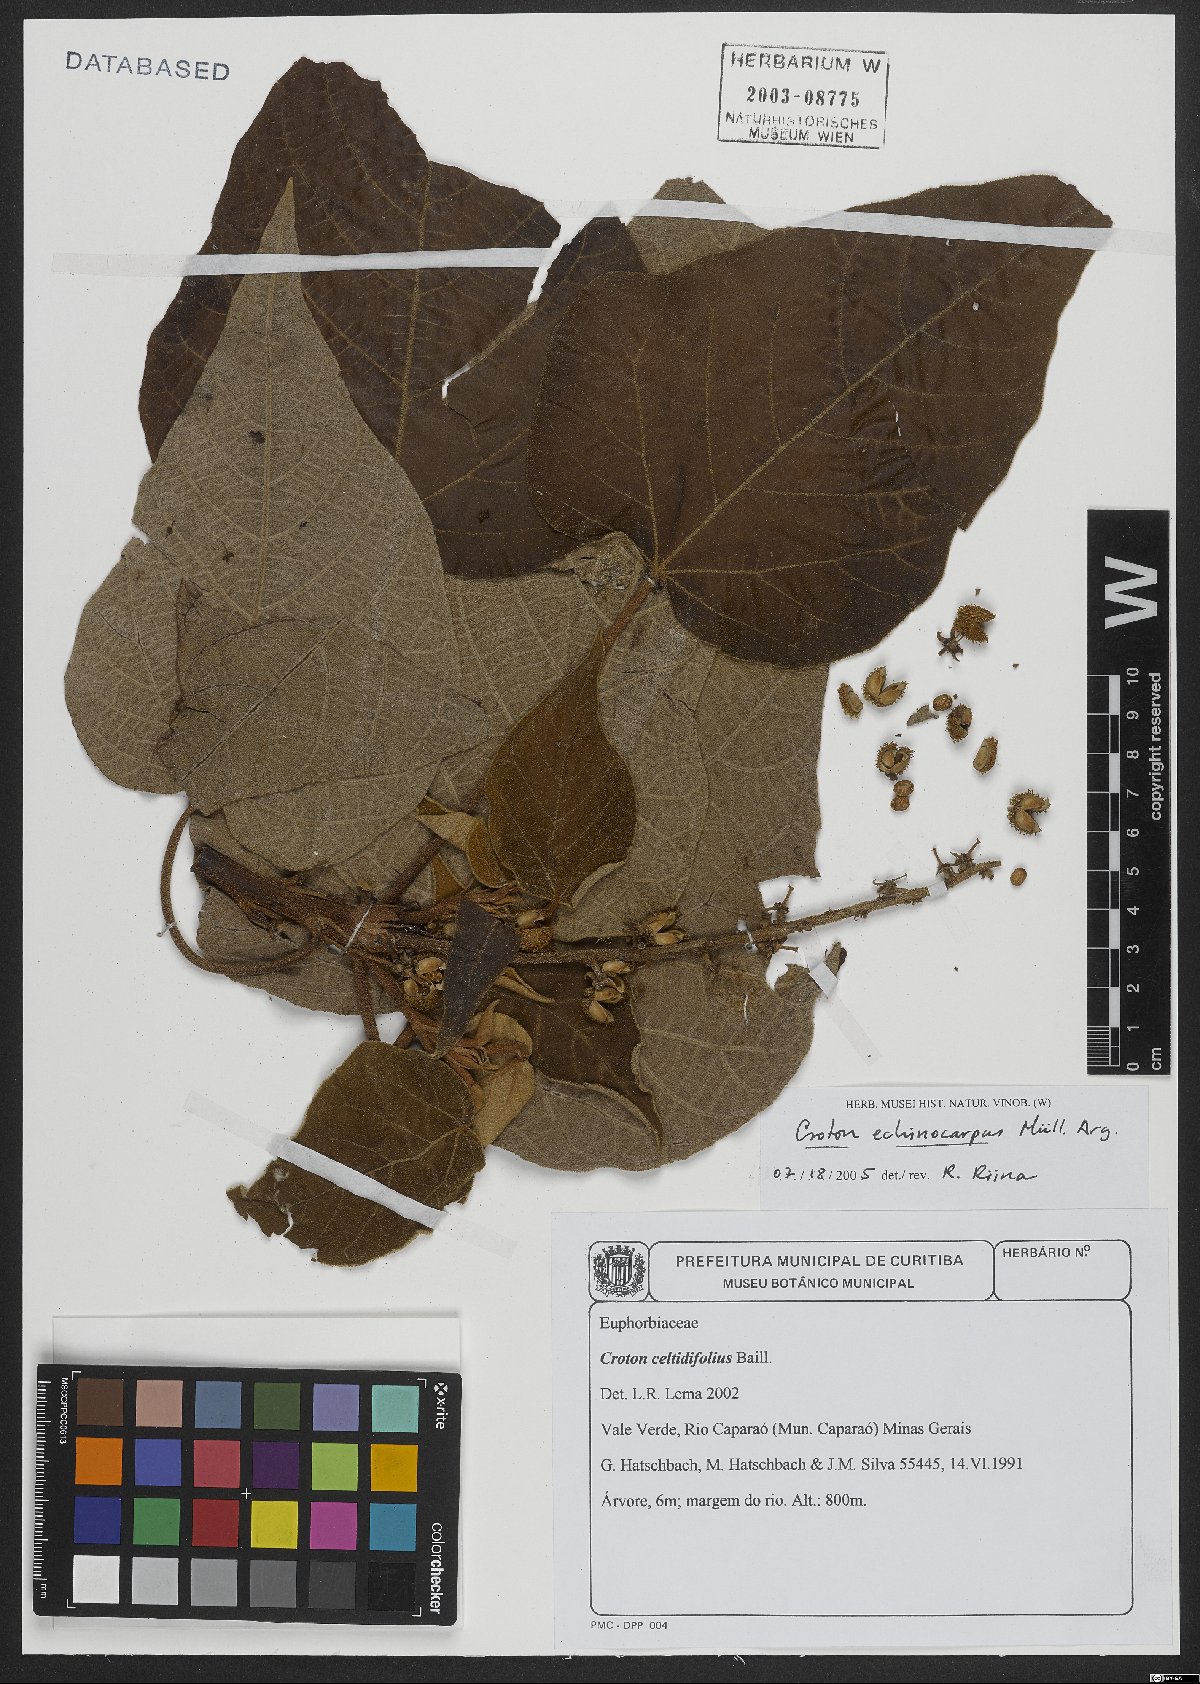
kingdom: Plantae
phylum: Tracheophyta
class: Magnoliopsida
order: Malpighiales
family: Euphorbiaceae
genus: Croton
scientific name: Croton verrucosus
